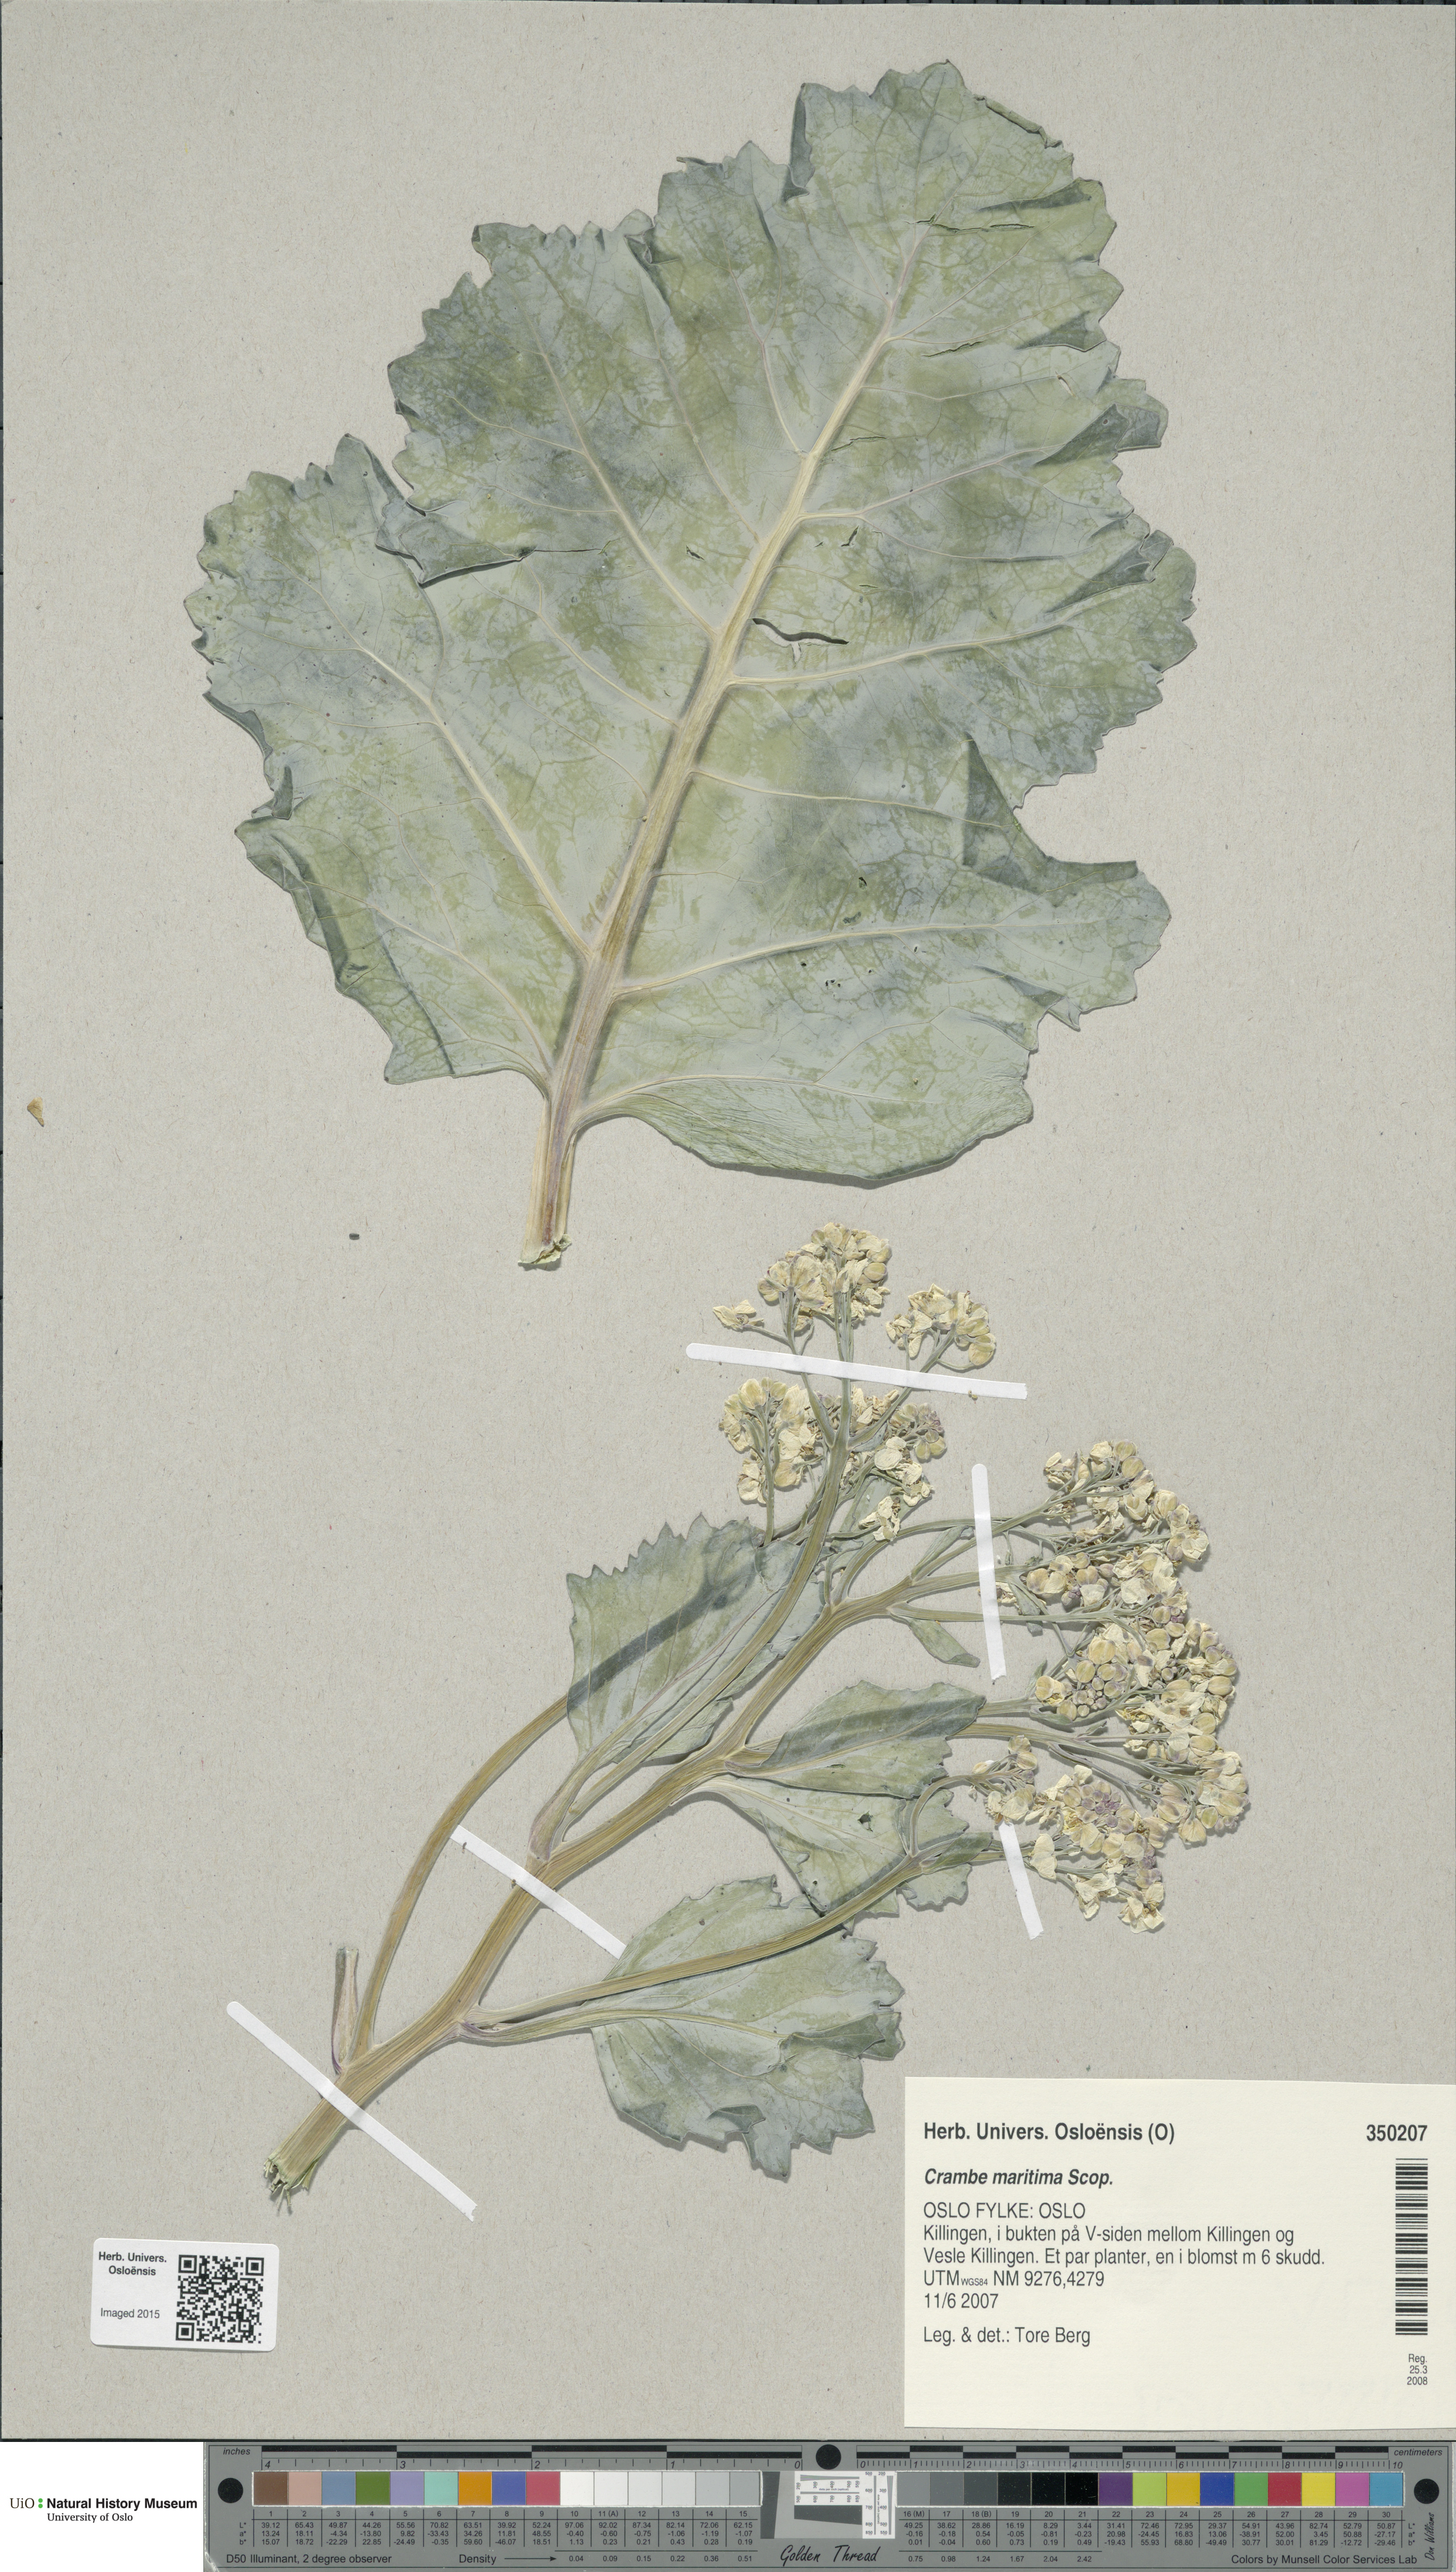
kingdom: Plantae
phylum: Tracheophyta
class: Magnoliopsida
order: Brassicales
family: Brassicaceae
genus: Crambe
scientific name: Crambe maritima
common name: Sea-kale
